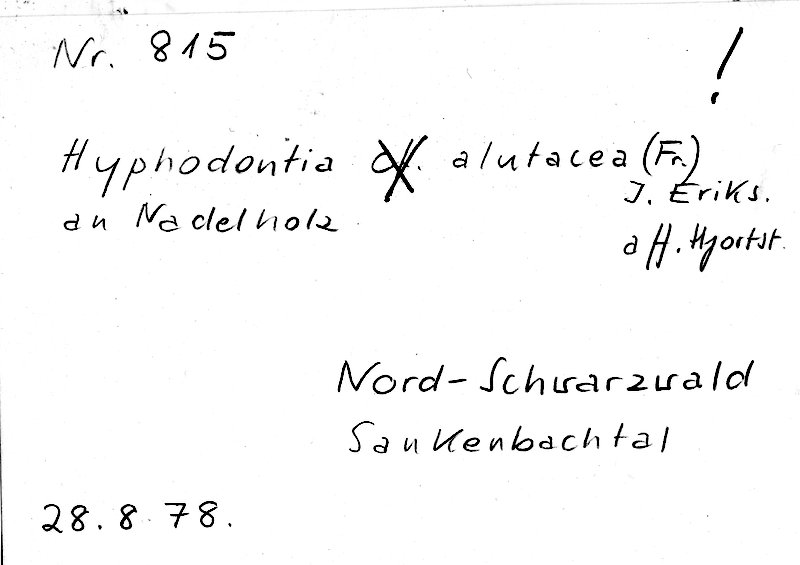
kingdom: Fungi
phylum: Basidiomycota
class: Agaricomycetes
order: Hymenochaetales
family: Schizoporaceae
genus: Alutaceodontia
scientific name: Alutaceodontia alutacea
